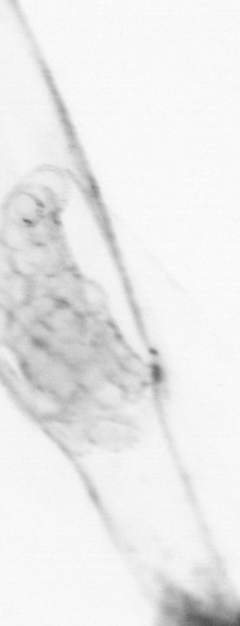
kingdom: Animalia
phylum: Chaetognatha
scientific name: Chaetognatha
